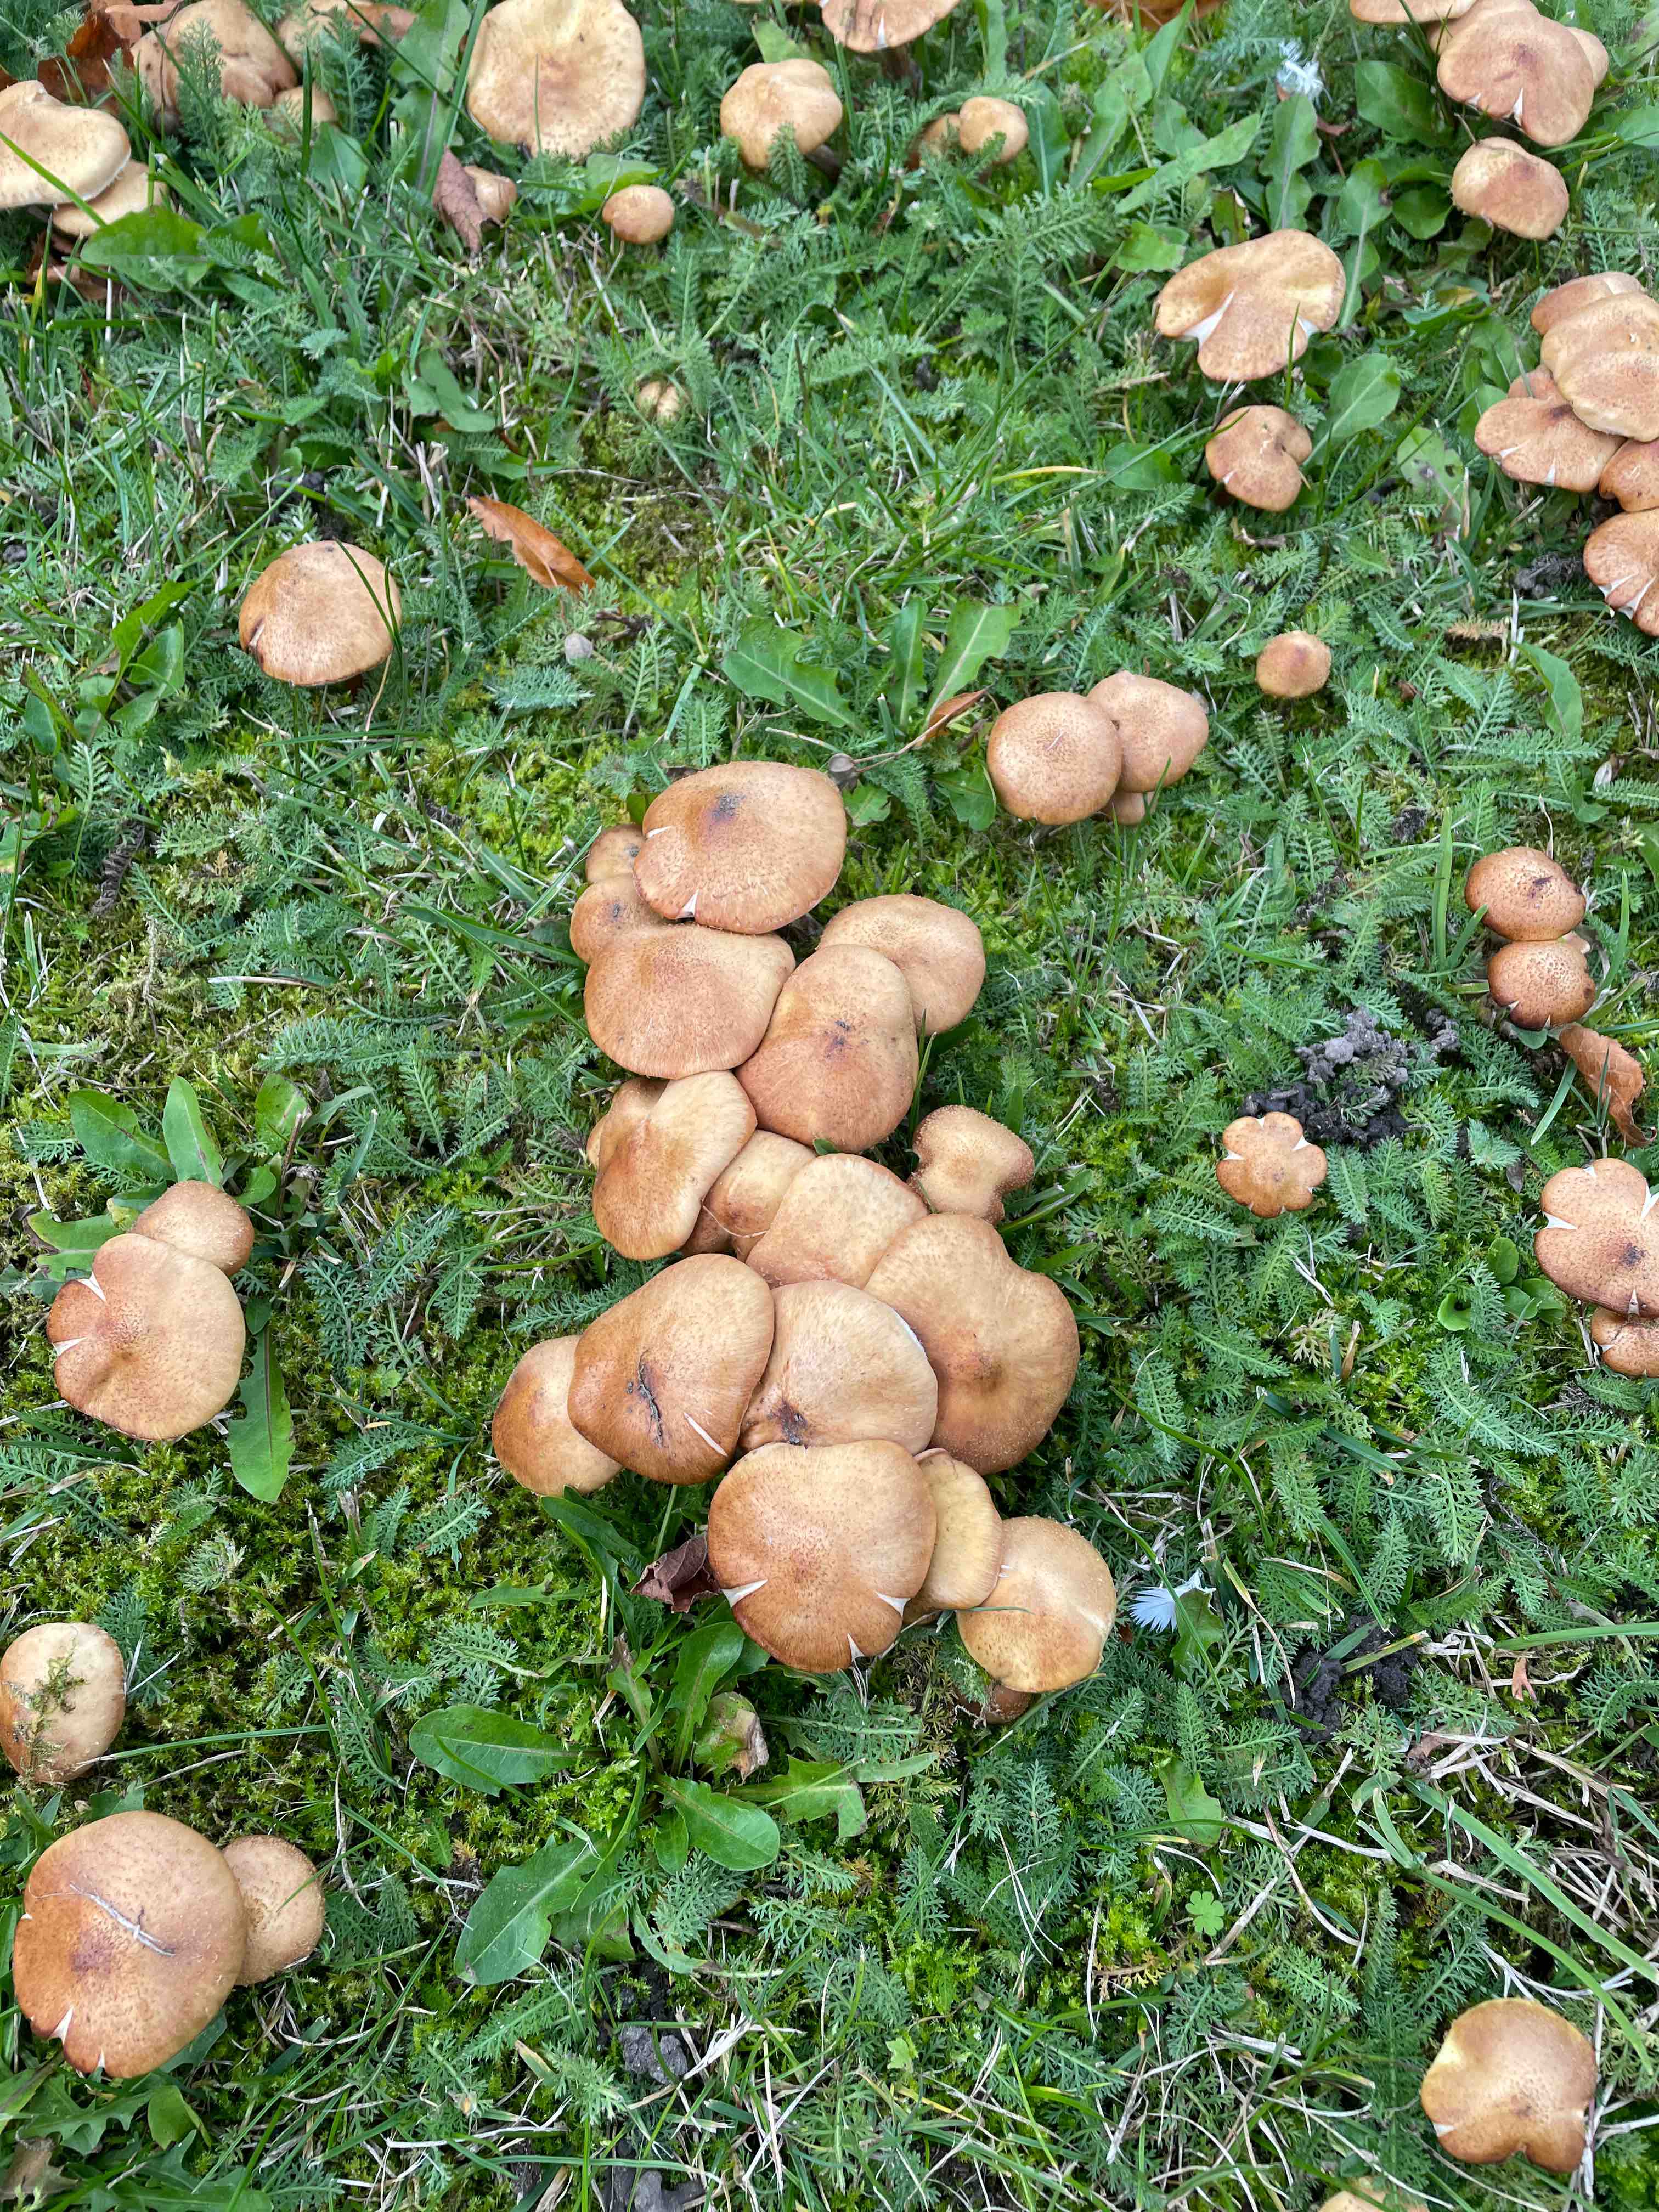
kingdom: Fungi
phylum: Basidiomycota
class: Agaricomycetes
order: Agaricales
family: Physalacriaceae
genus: Armillaria
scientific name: Armillaria lutea
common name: køllestokket honningsvamp
